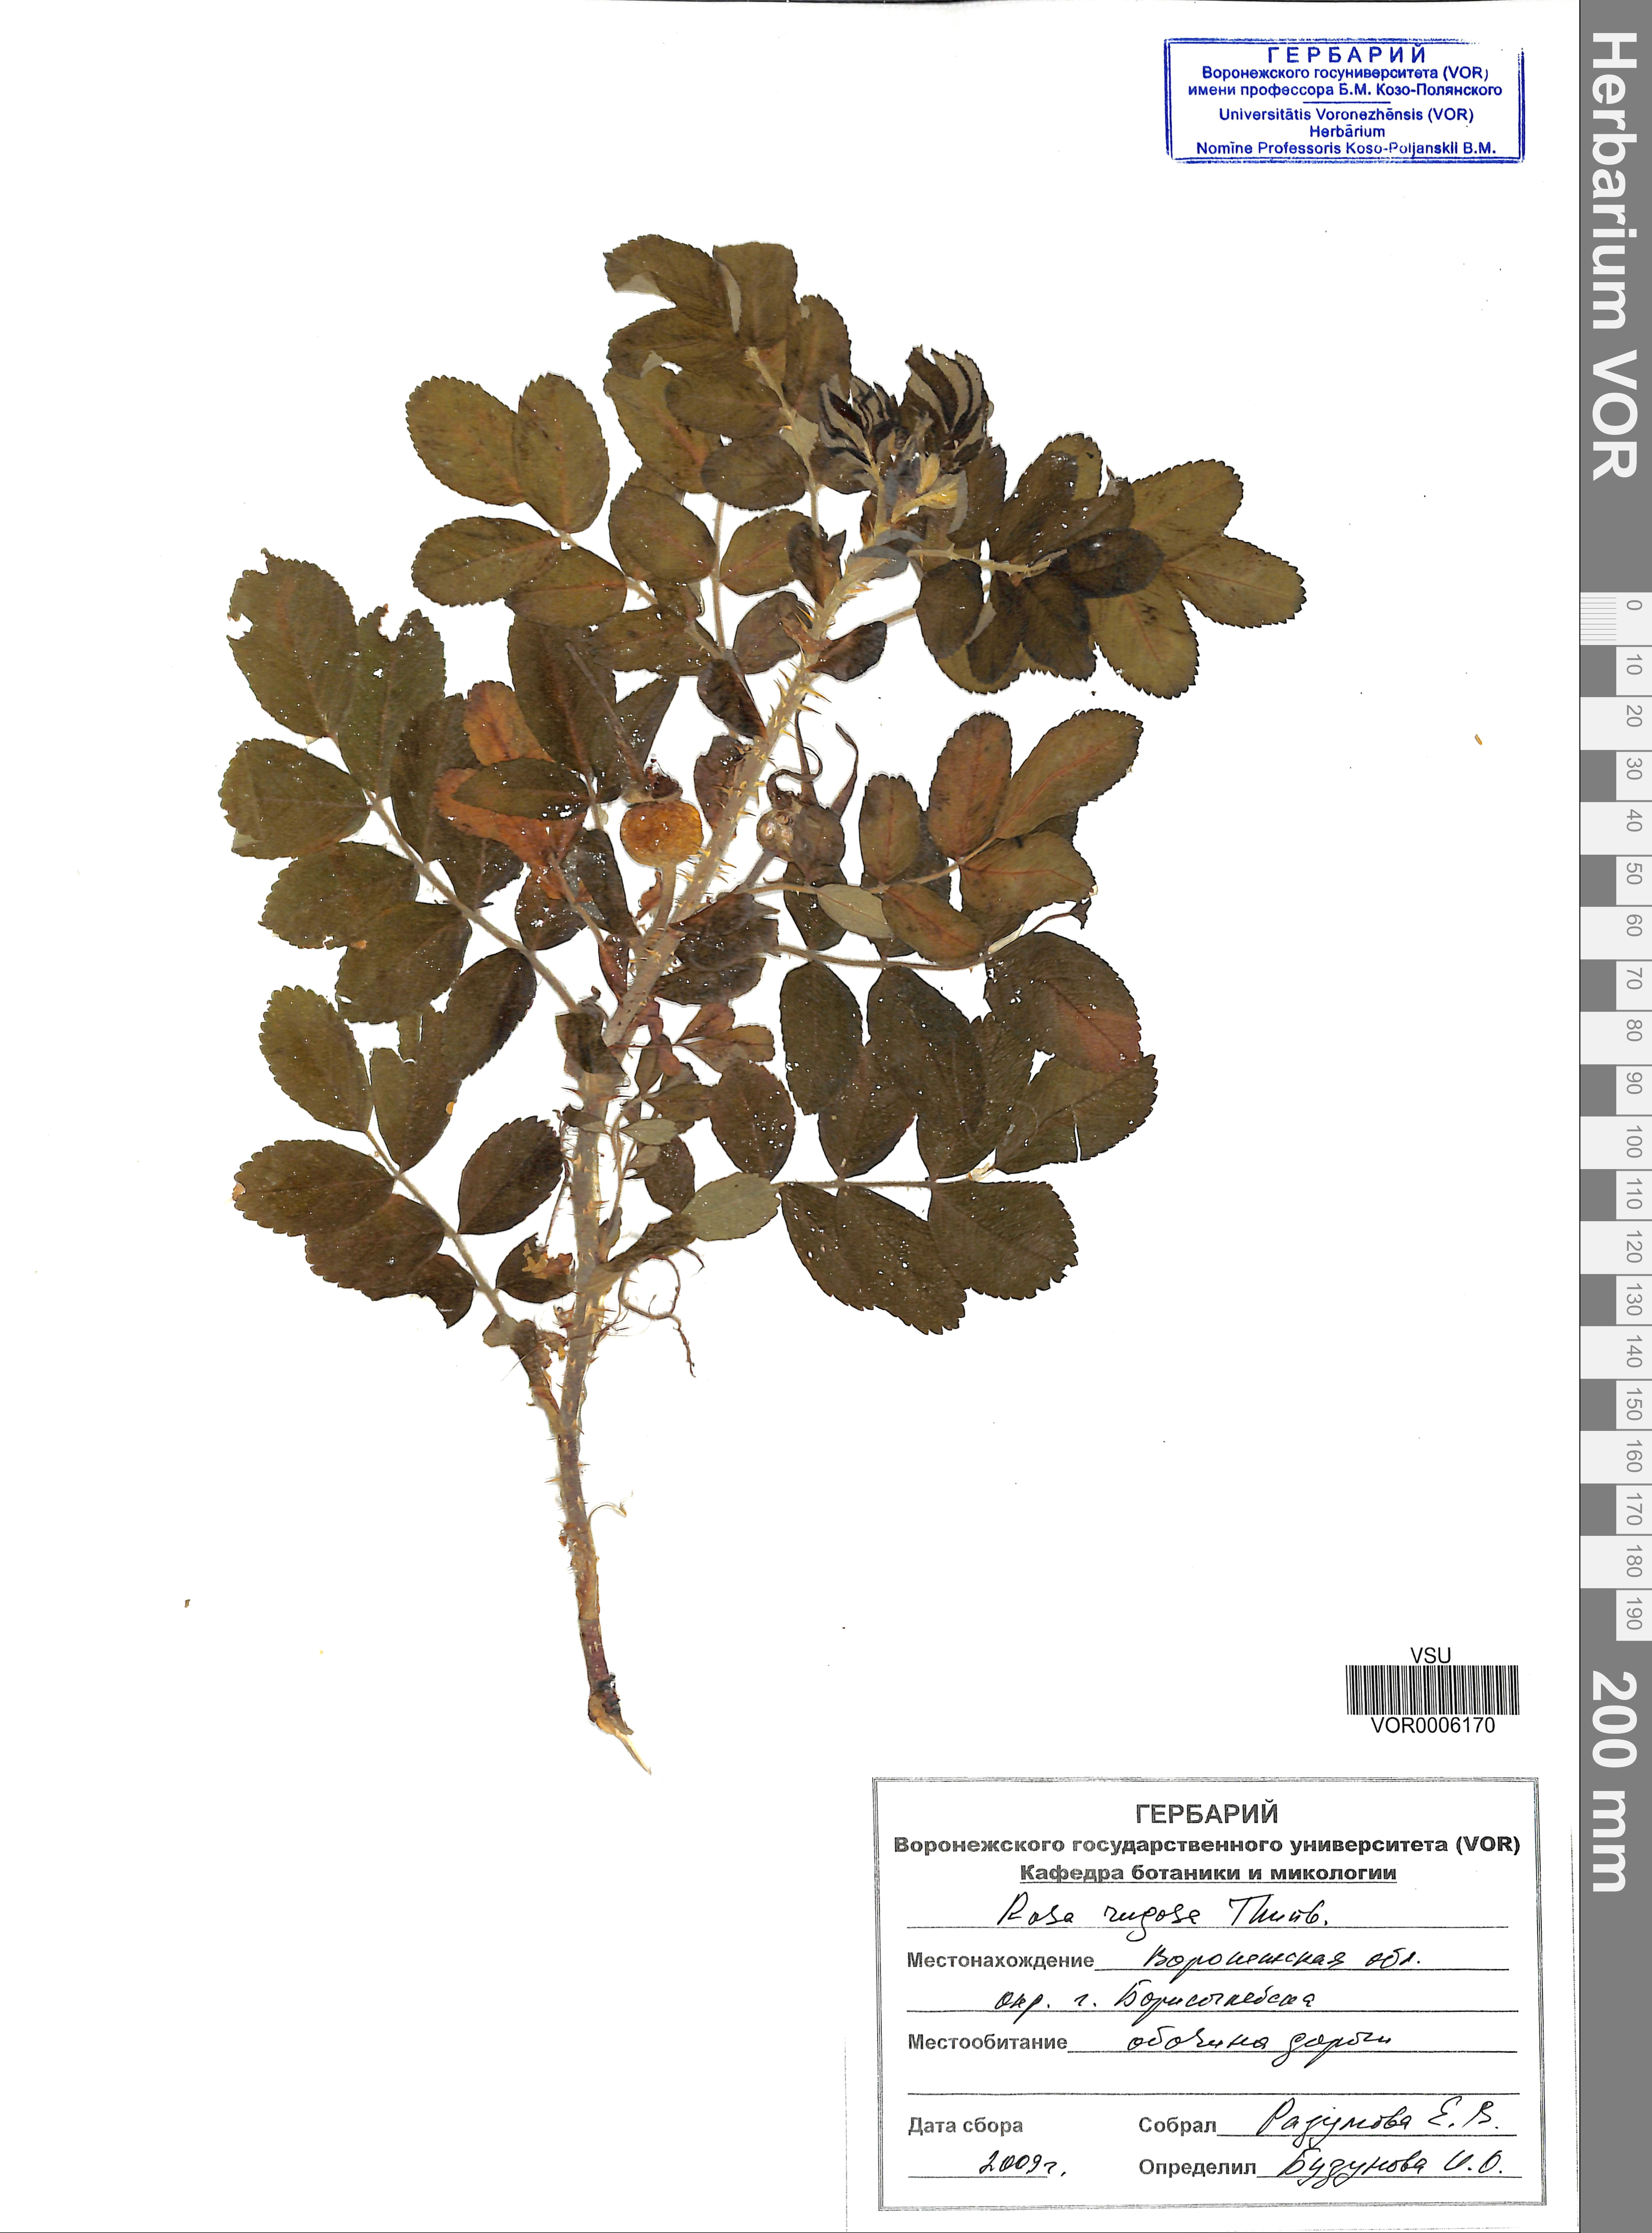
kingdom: Plantae
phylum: Tracheophyta
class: Magnoliopsida
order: Rosales
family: Rosaceae
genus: Rosa
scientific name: Rosa rugosa
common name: Japanese rose
